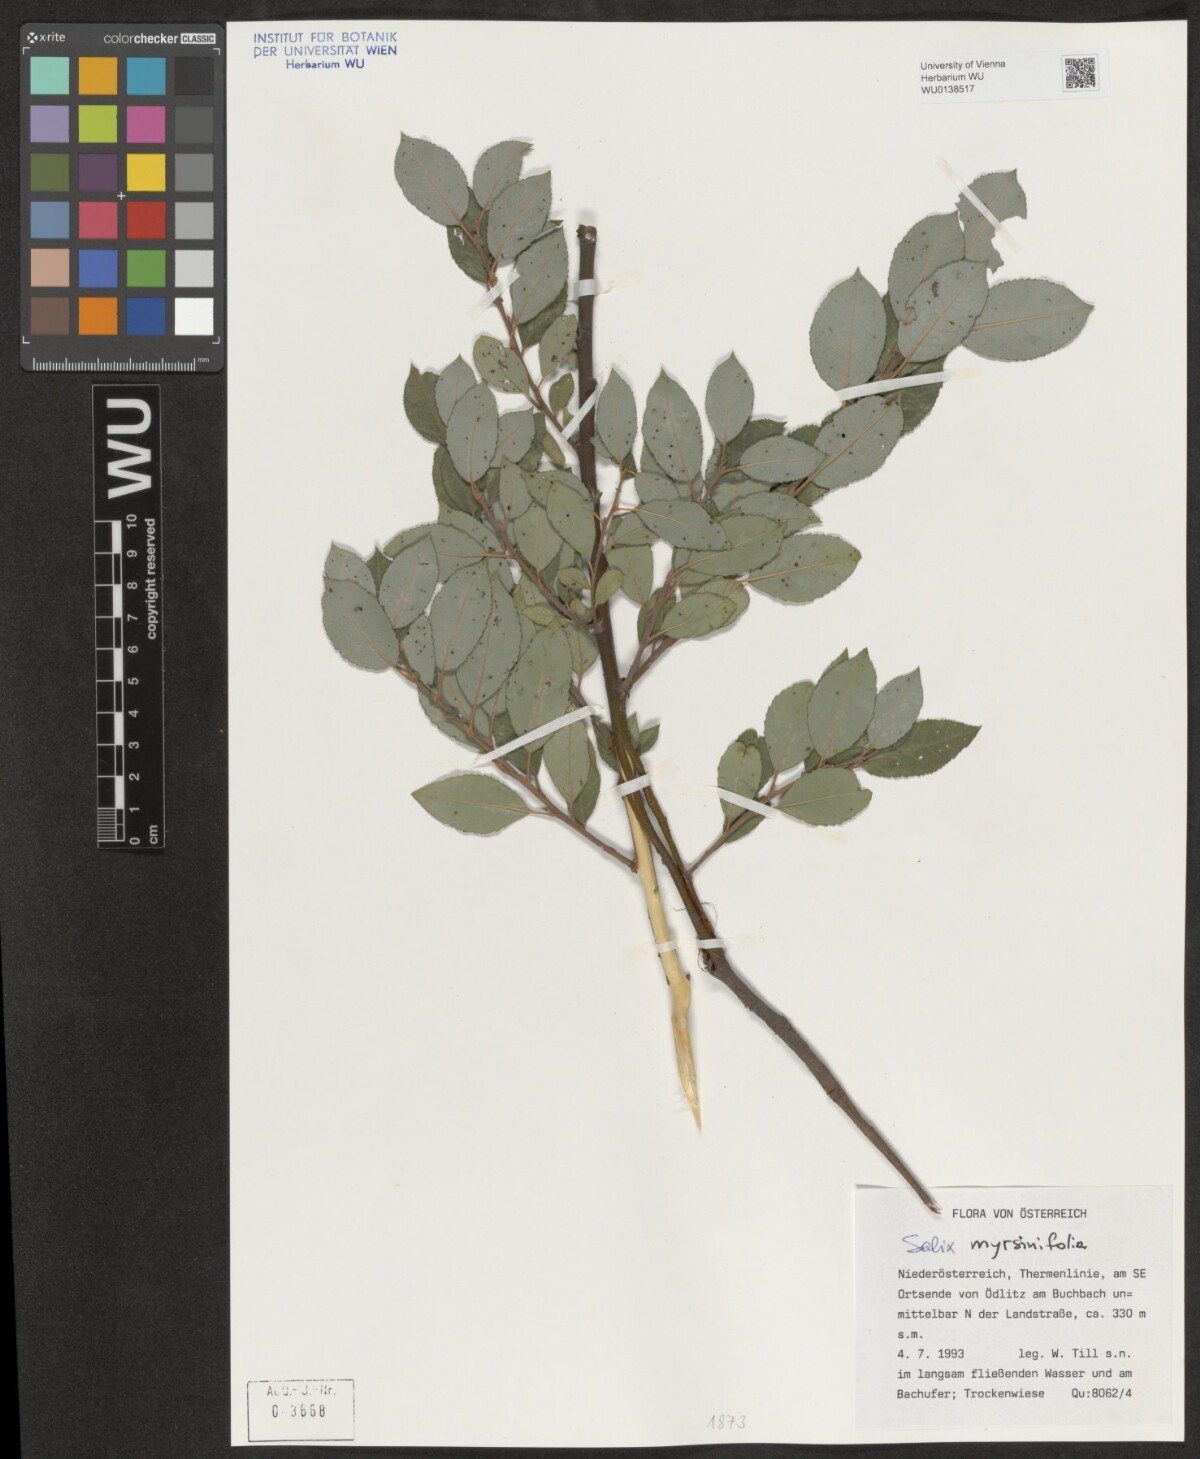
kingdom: Plantae
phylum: Tracheophyta
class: Magnoliopsida
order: Malpighiales
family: Salicaceae
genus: Salix
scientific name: Salix myrsinifolia
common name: Dark-leaved willow
